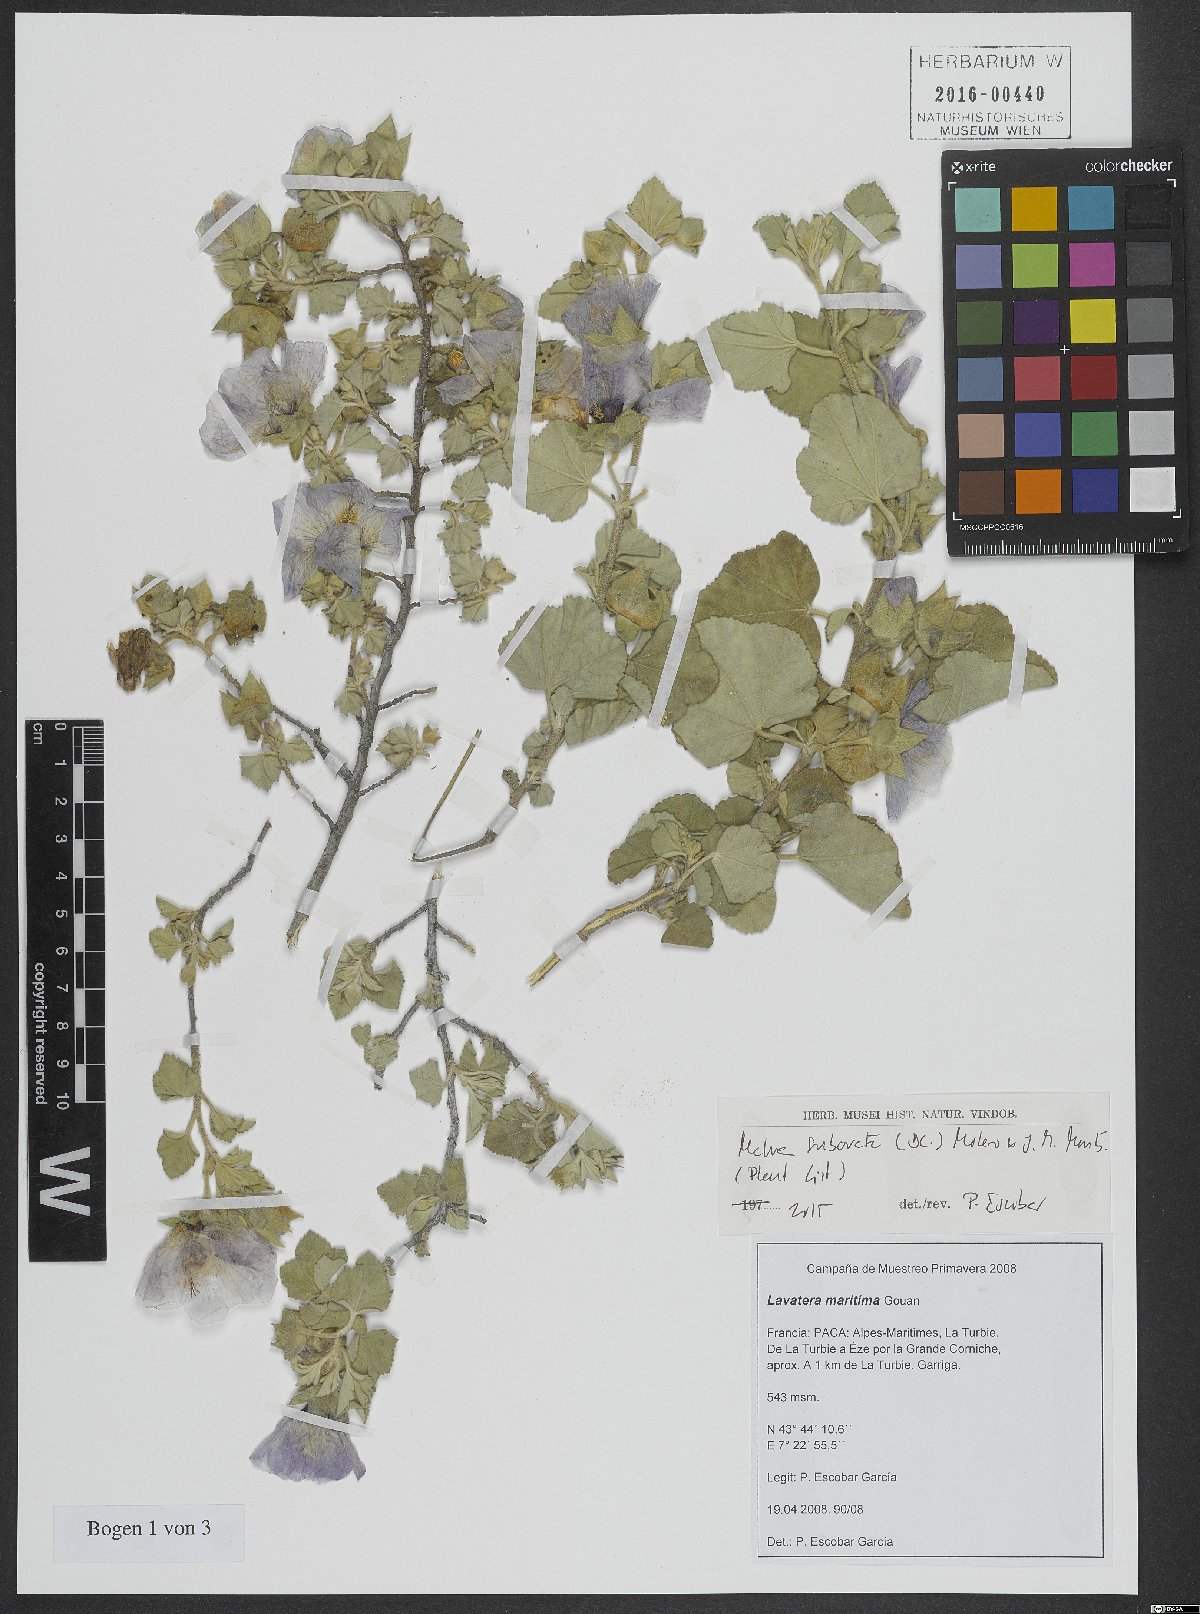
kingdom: Plantae
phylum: Tracheophyta
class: Magnoliopsida
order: Malvales
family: Malvaceae
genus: Malva
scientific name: Malva subovata
